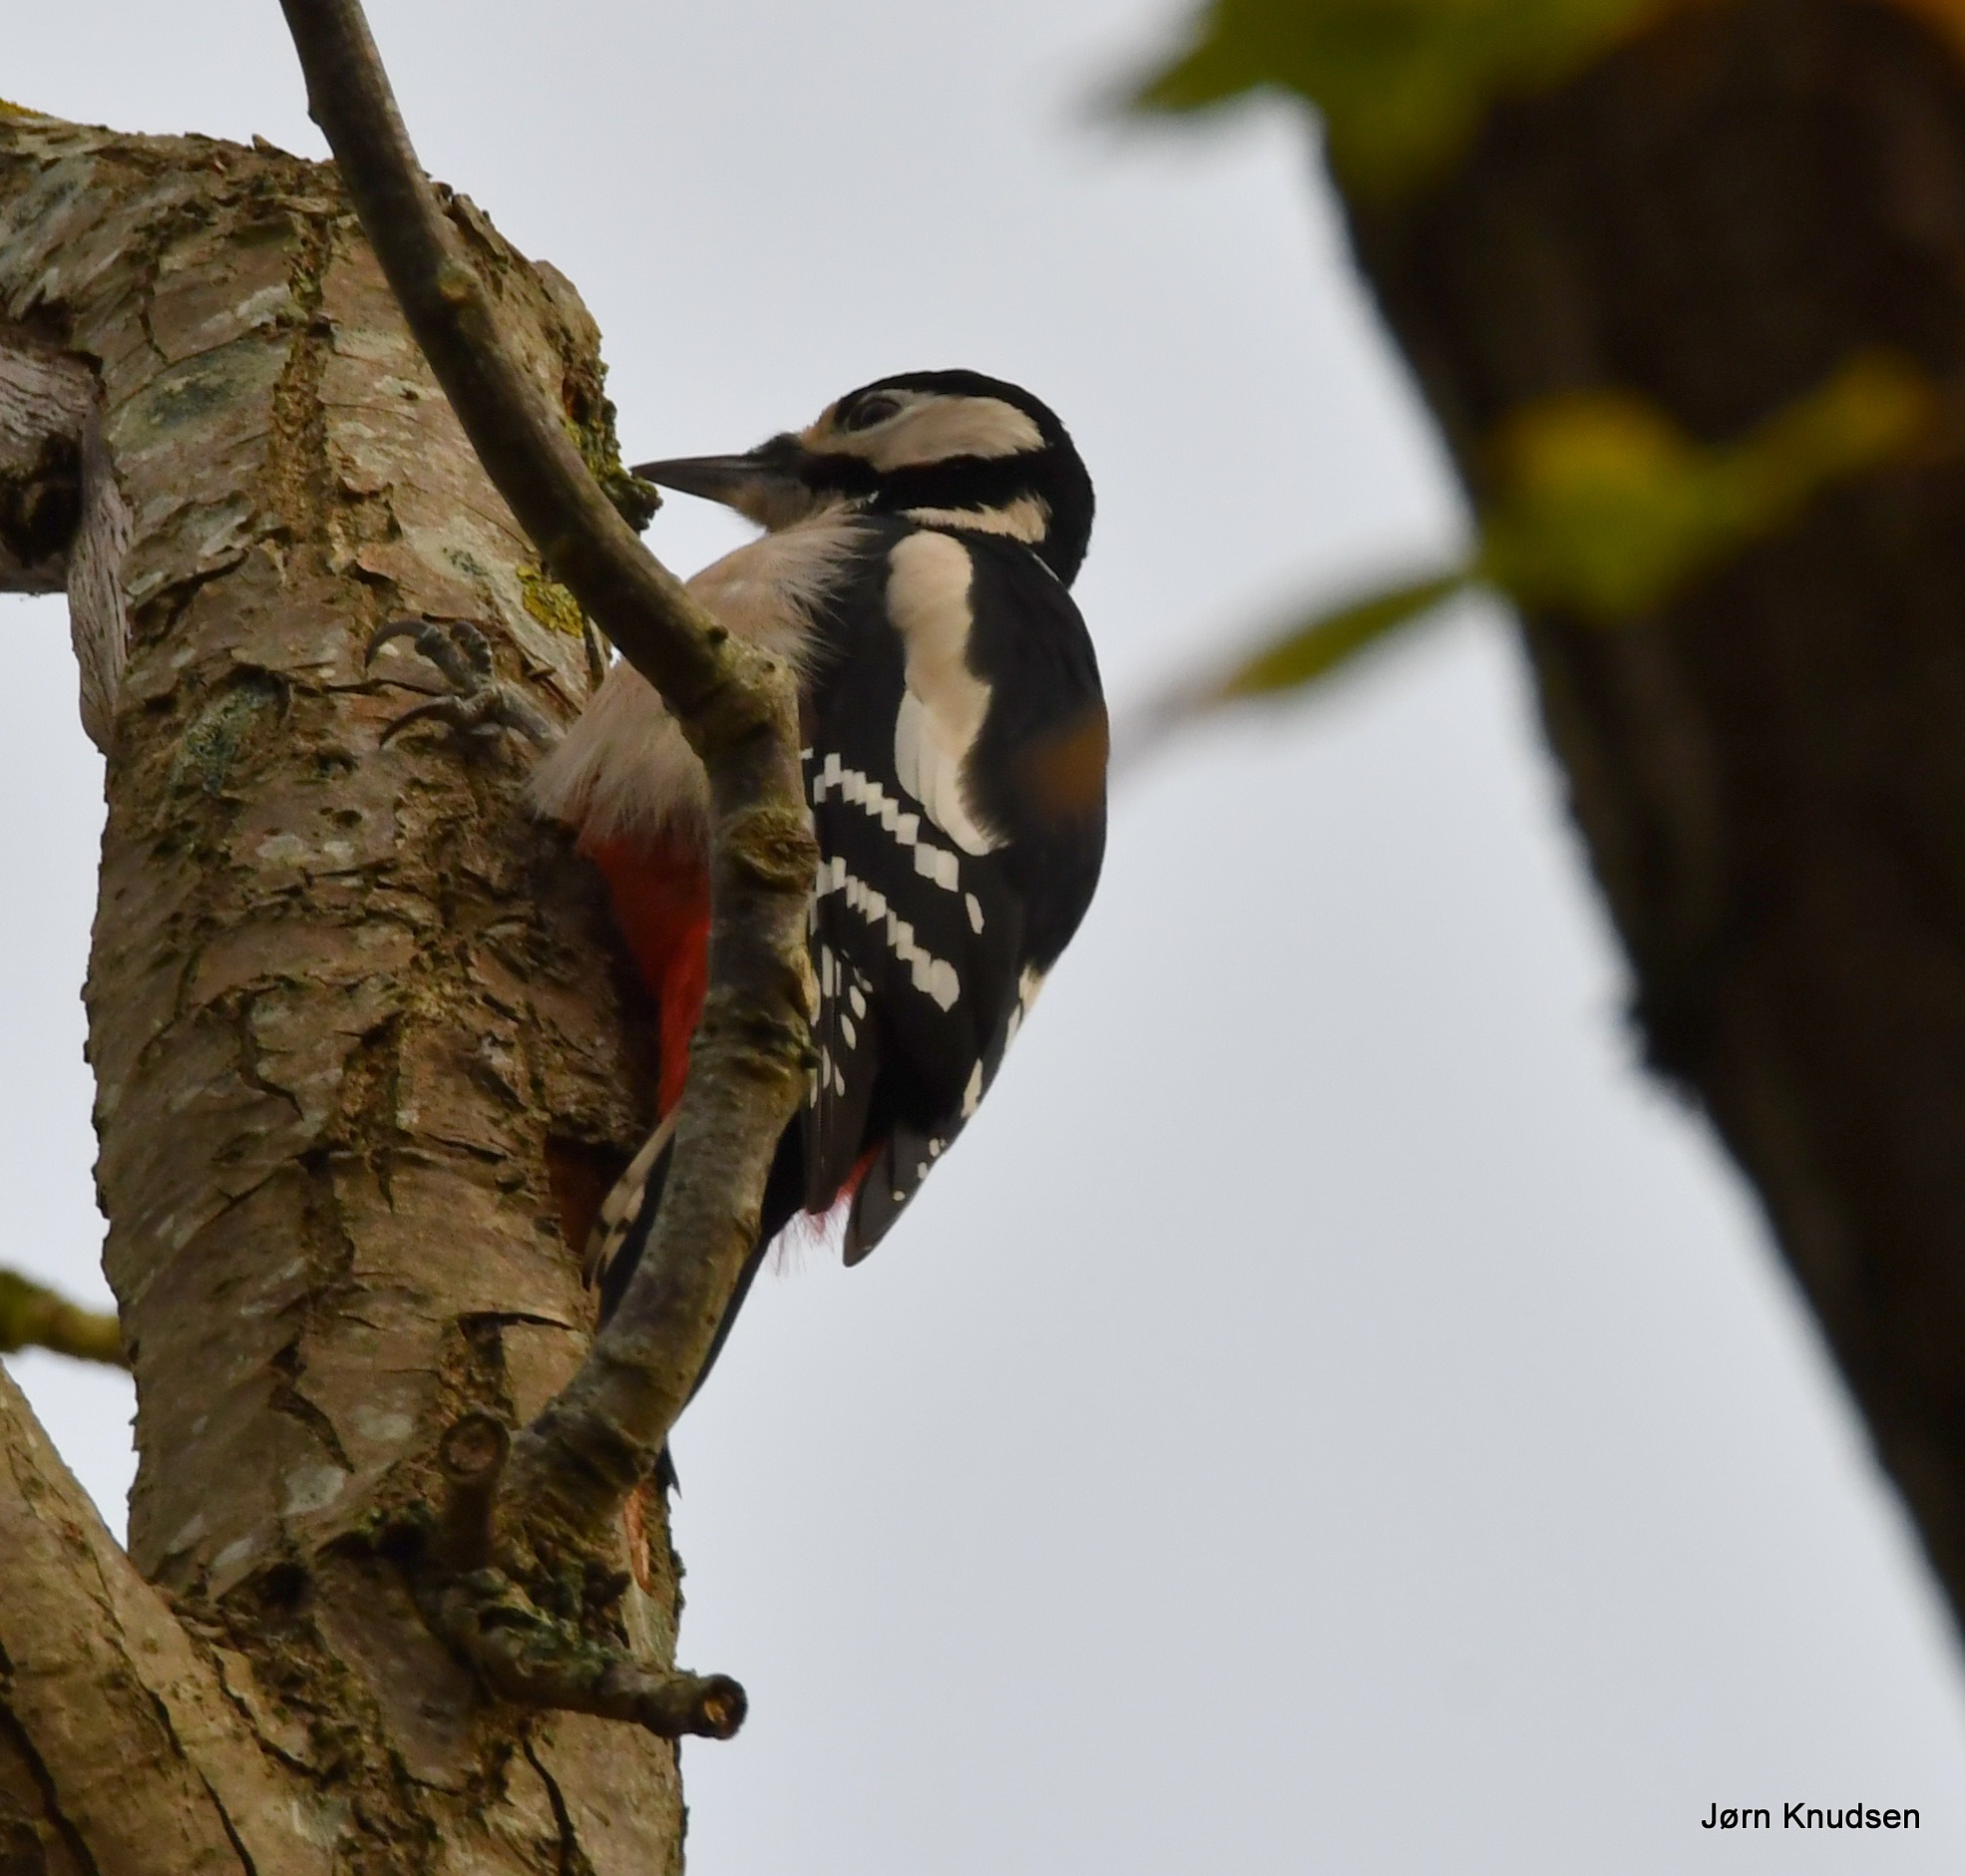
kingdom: Animalia
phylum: Chordata
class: Aves
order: Piciformes
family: Picidae
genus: Dendrocopos
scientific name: Dendrocopos major
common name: Stor flagspætte
